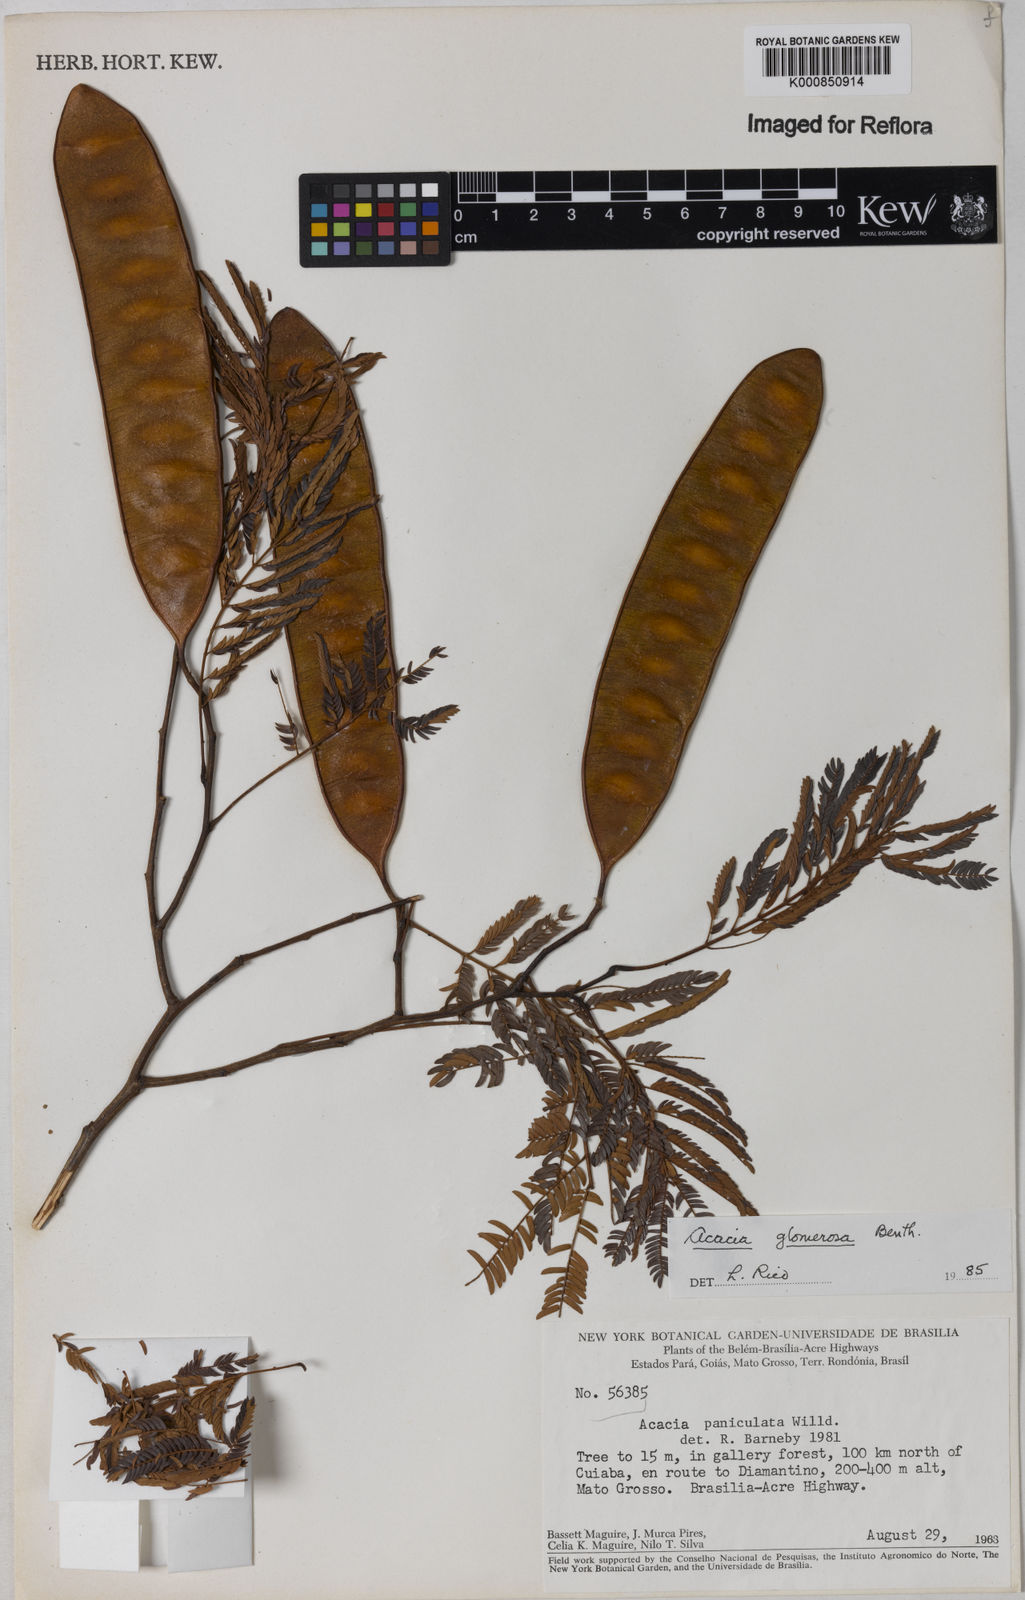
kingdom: Plantae
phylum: Tracheophyta
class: Magnoliopsida
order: Fabales
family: Fabaceae
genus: Senegalia
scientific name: Senegalia polyphylla
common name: White-tamarind
